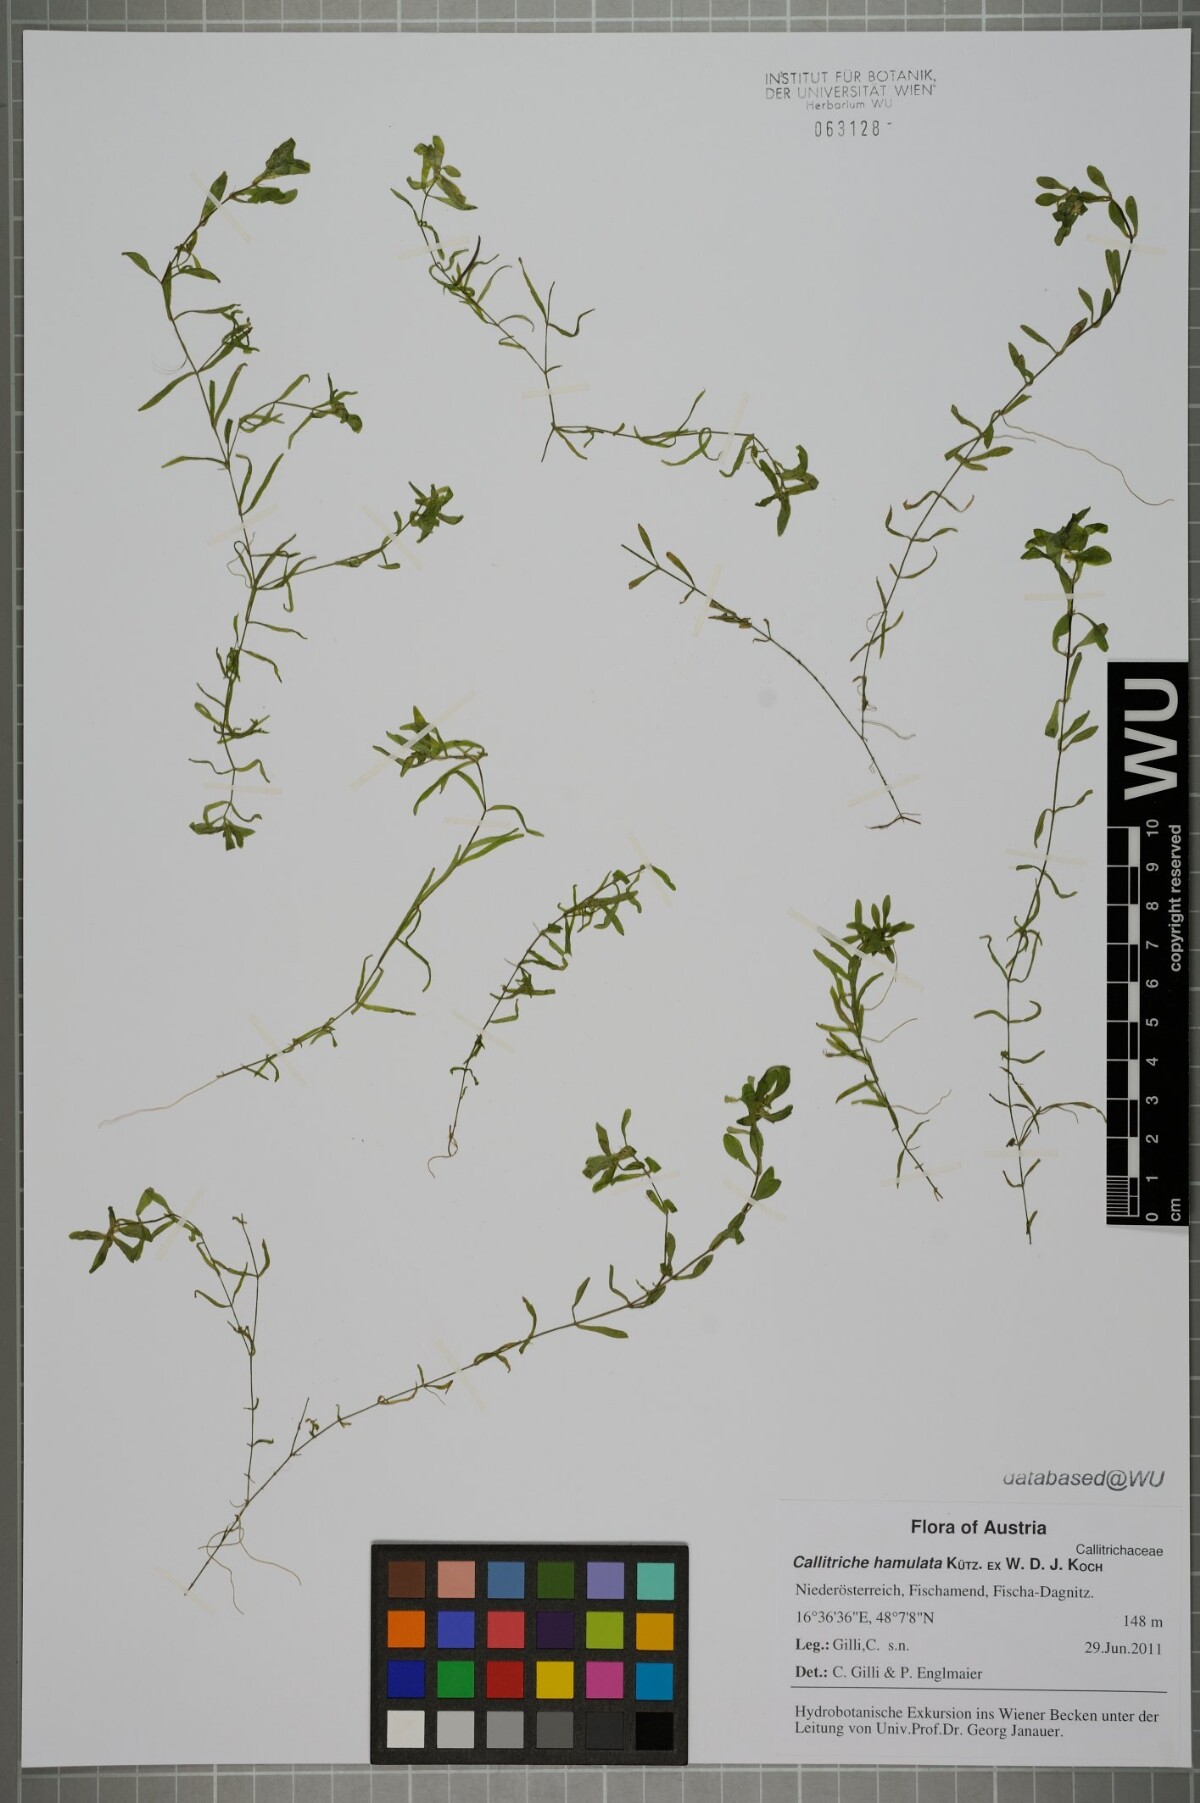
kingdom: Plantae
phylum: Tracheophyta
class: Magnoliopsida
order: Lamiales
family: Plantaginaceae
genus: Callitriche
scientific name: Callitriche hamulata
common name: Intermediate water-starwort
